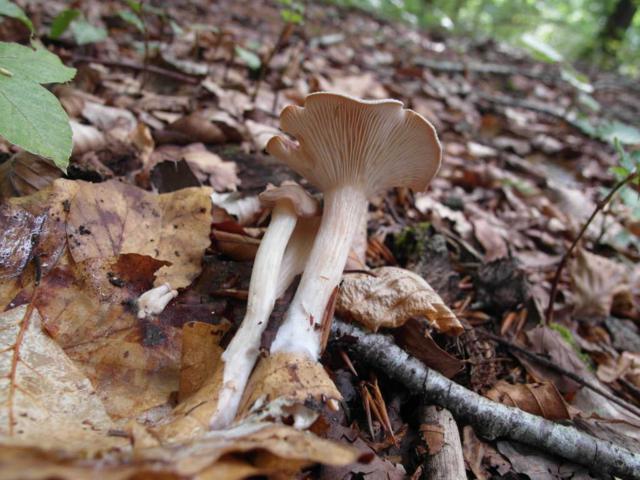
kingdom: Fungi
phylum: Basidiomycota
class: Agaricomycetes
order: Agaricales
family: Tricholomataceae
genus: Infundibulicybe
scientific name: Infundibulicybe gibba
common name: almindelig tragthat
